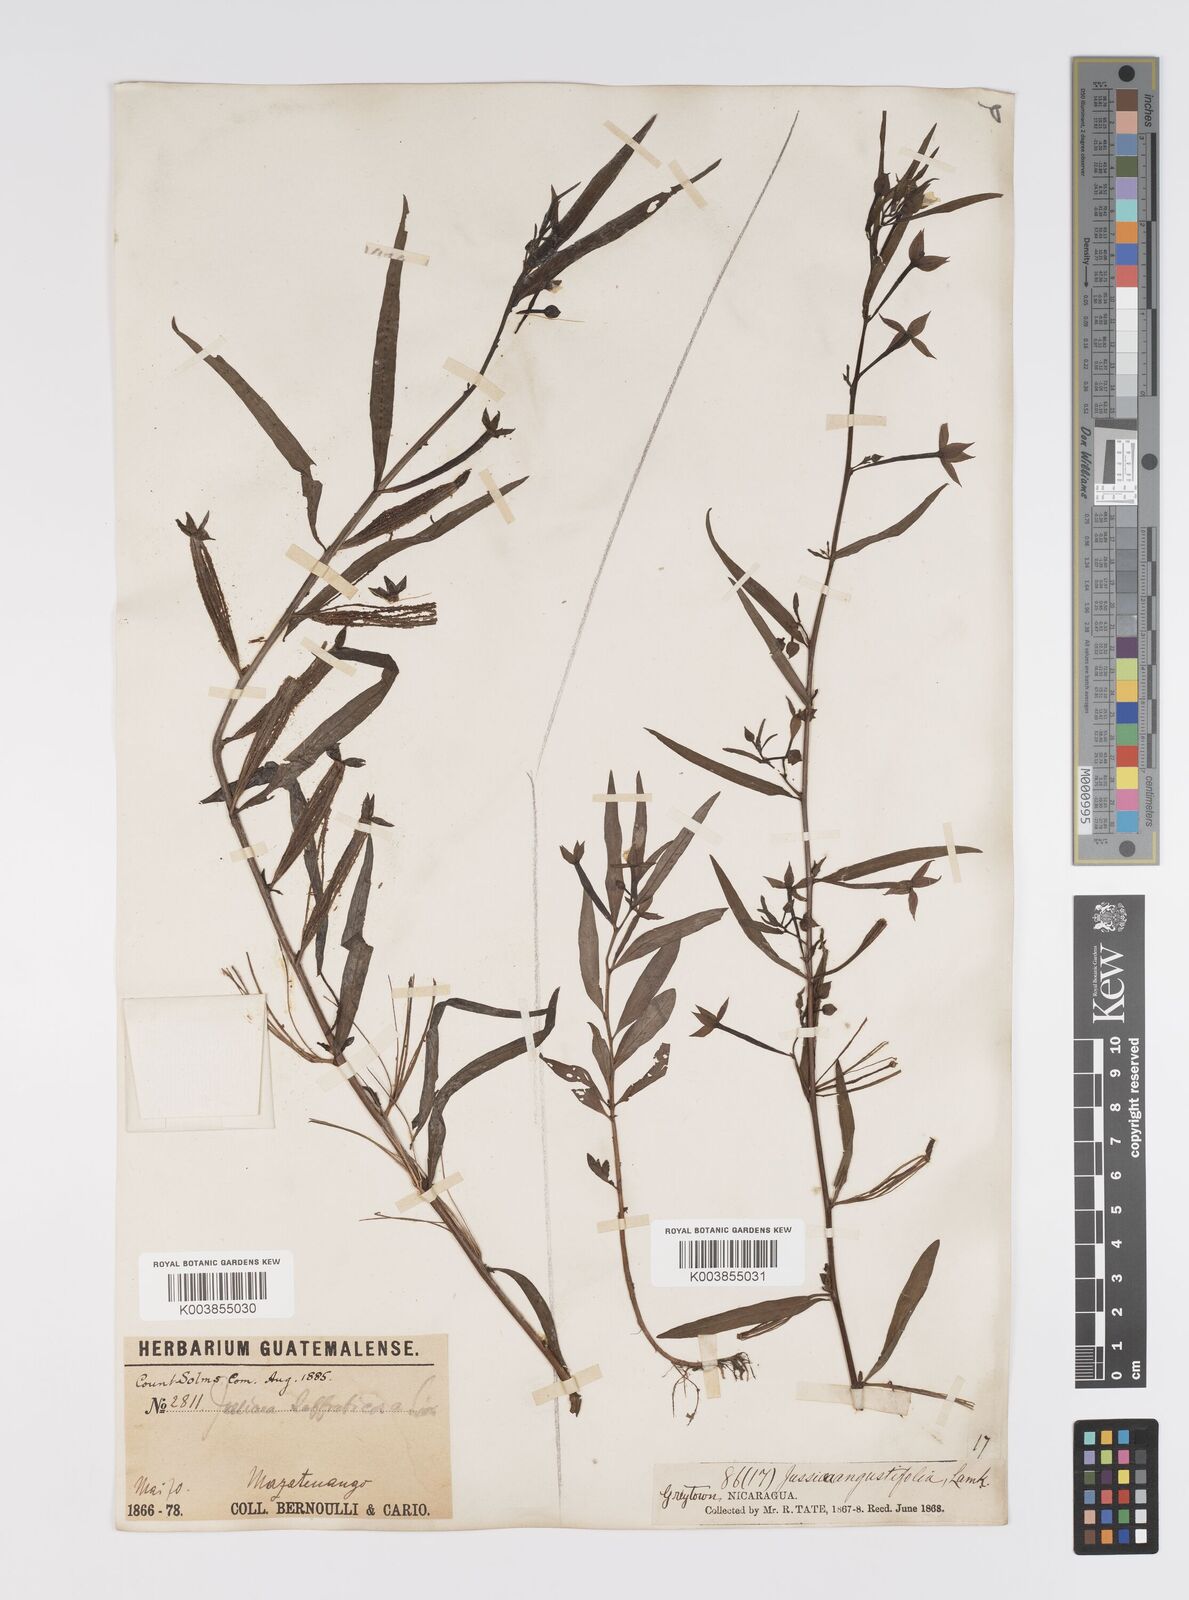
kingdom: Plantae
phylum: Tracheophyta
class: Magnoliopsida
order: Myrtales
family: Onagraceae
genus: Ludwigia
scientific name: Ludwigia octovalvis
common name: Water-primrose
